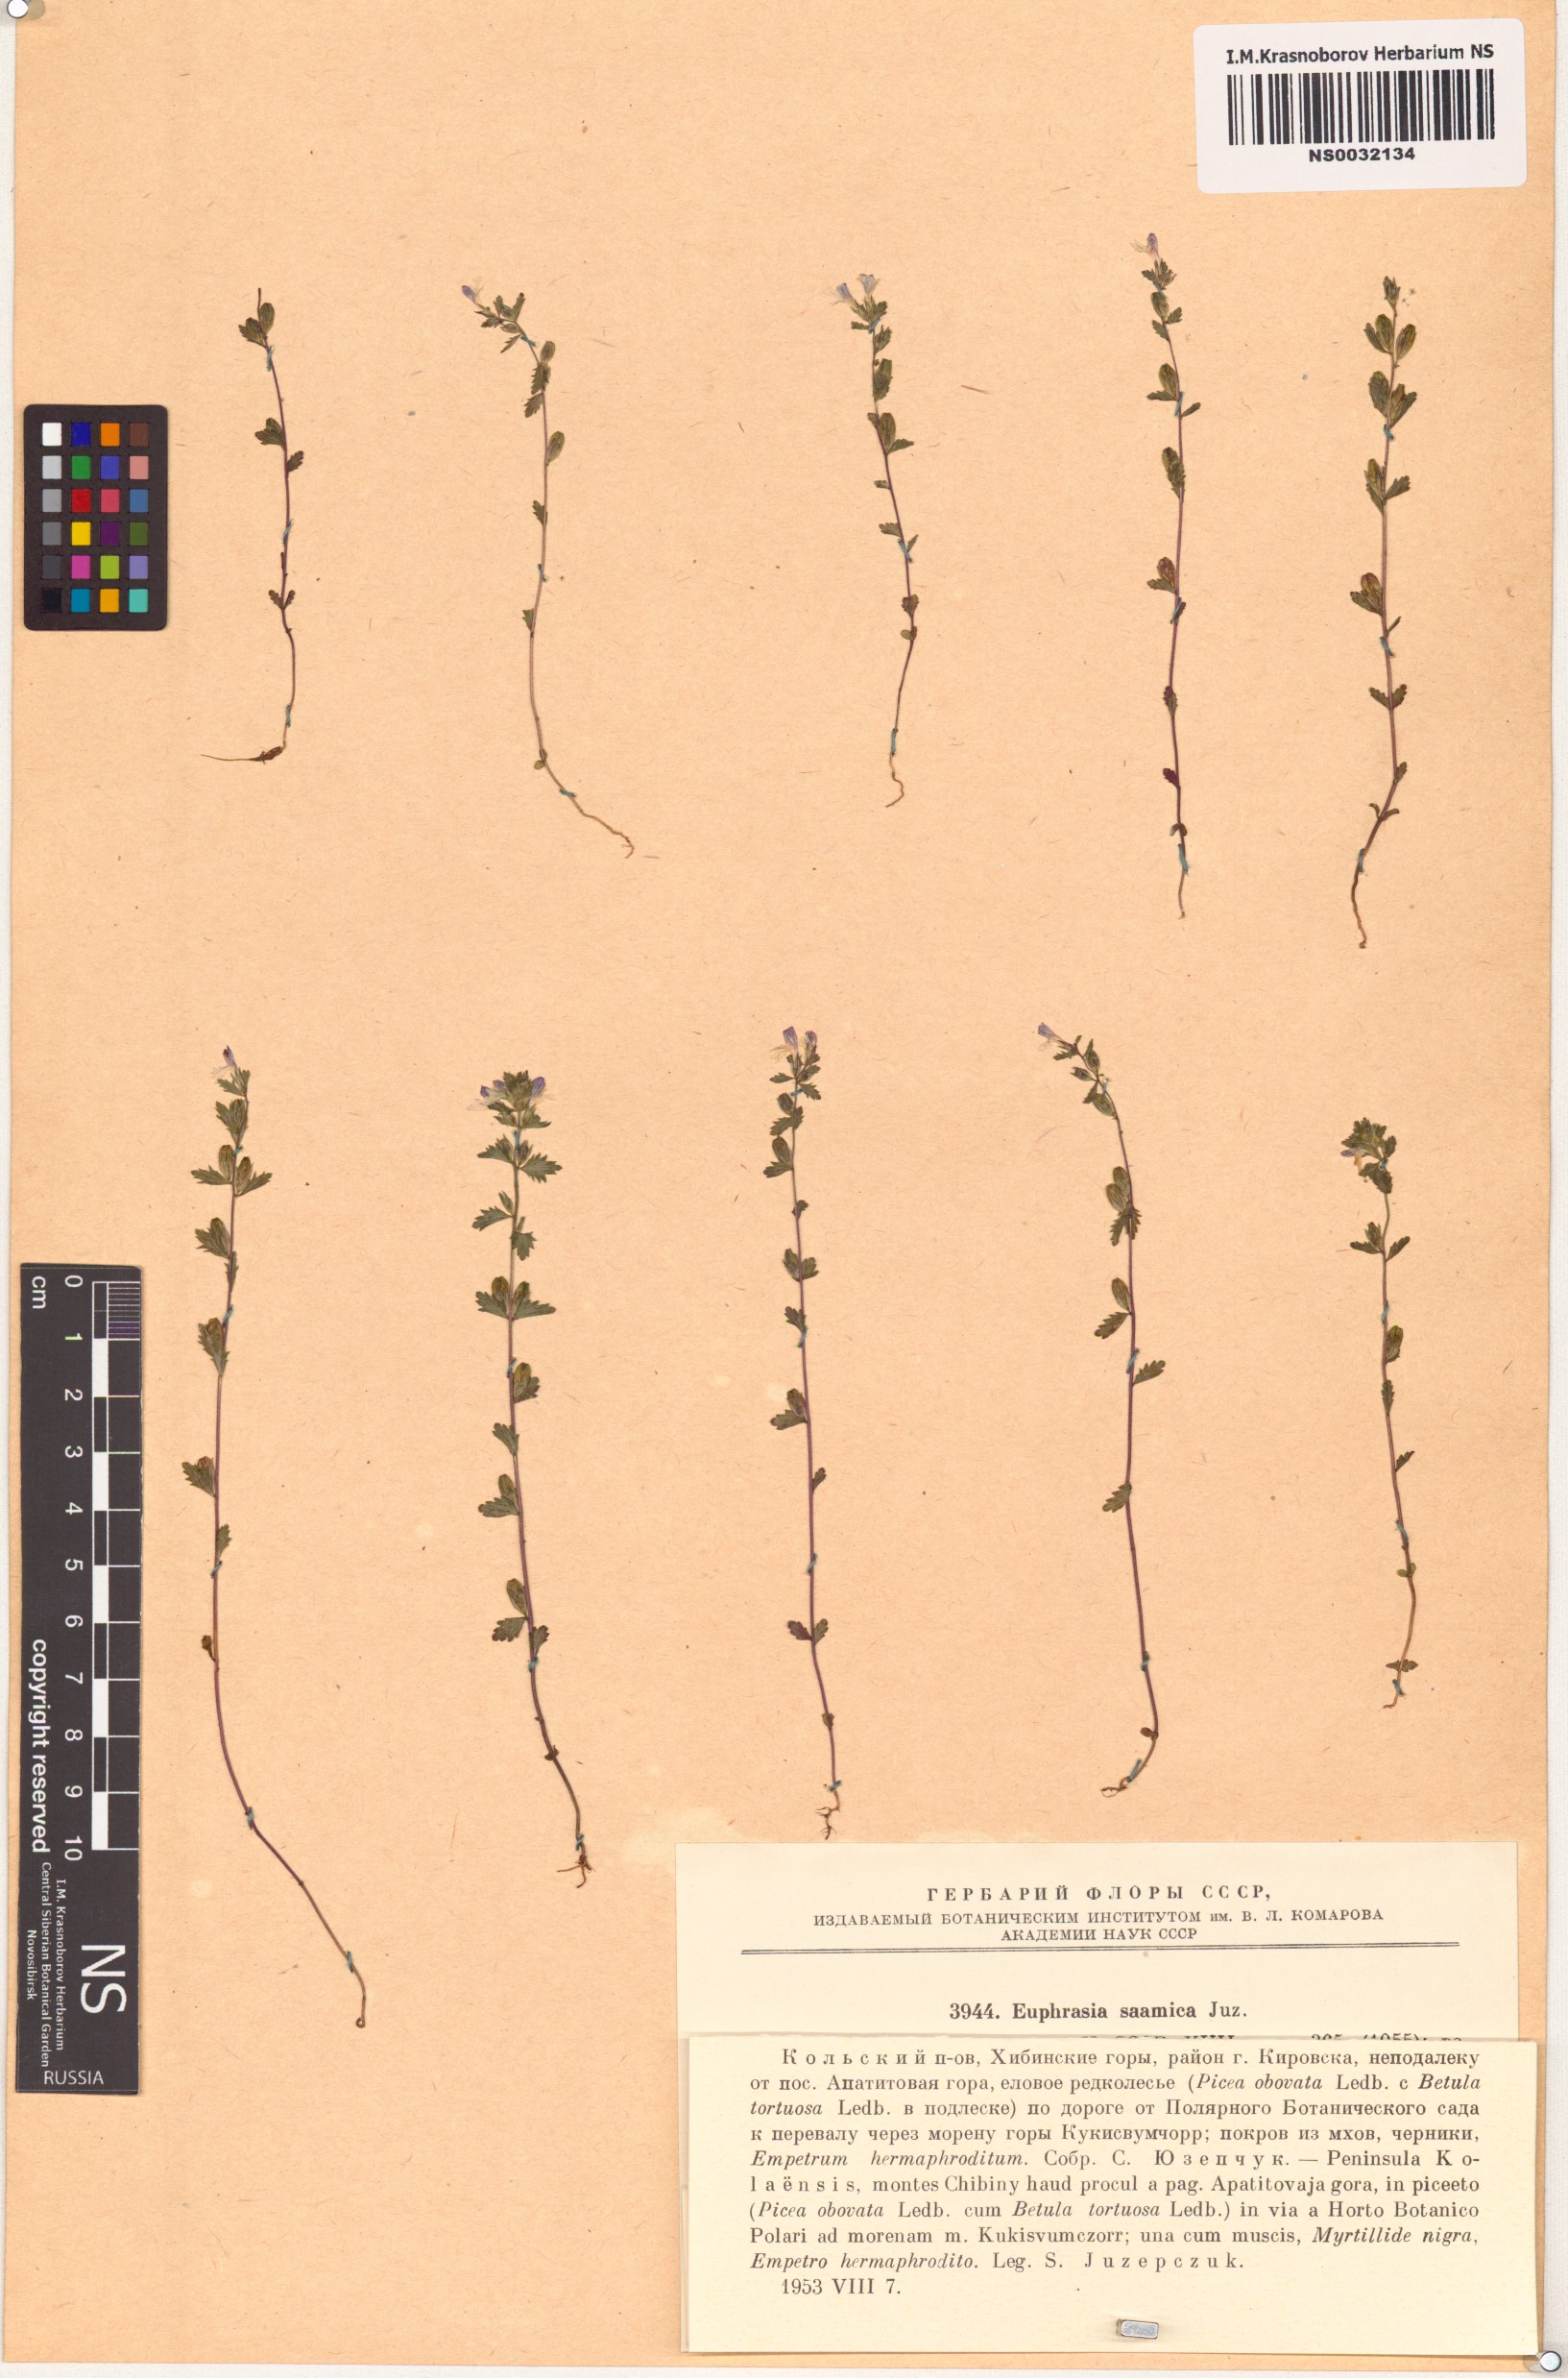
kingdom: Plantae
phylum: Tracheophyta
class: Magnoliopsida
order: Lamiales
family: Orobanchaceae
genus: Euphrasia
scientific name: Euphrasia hyperborea
